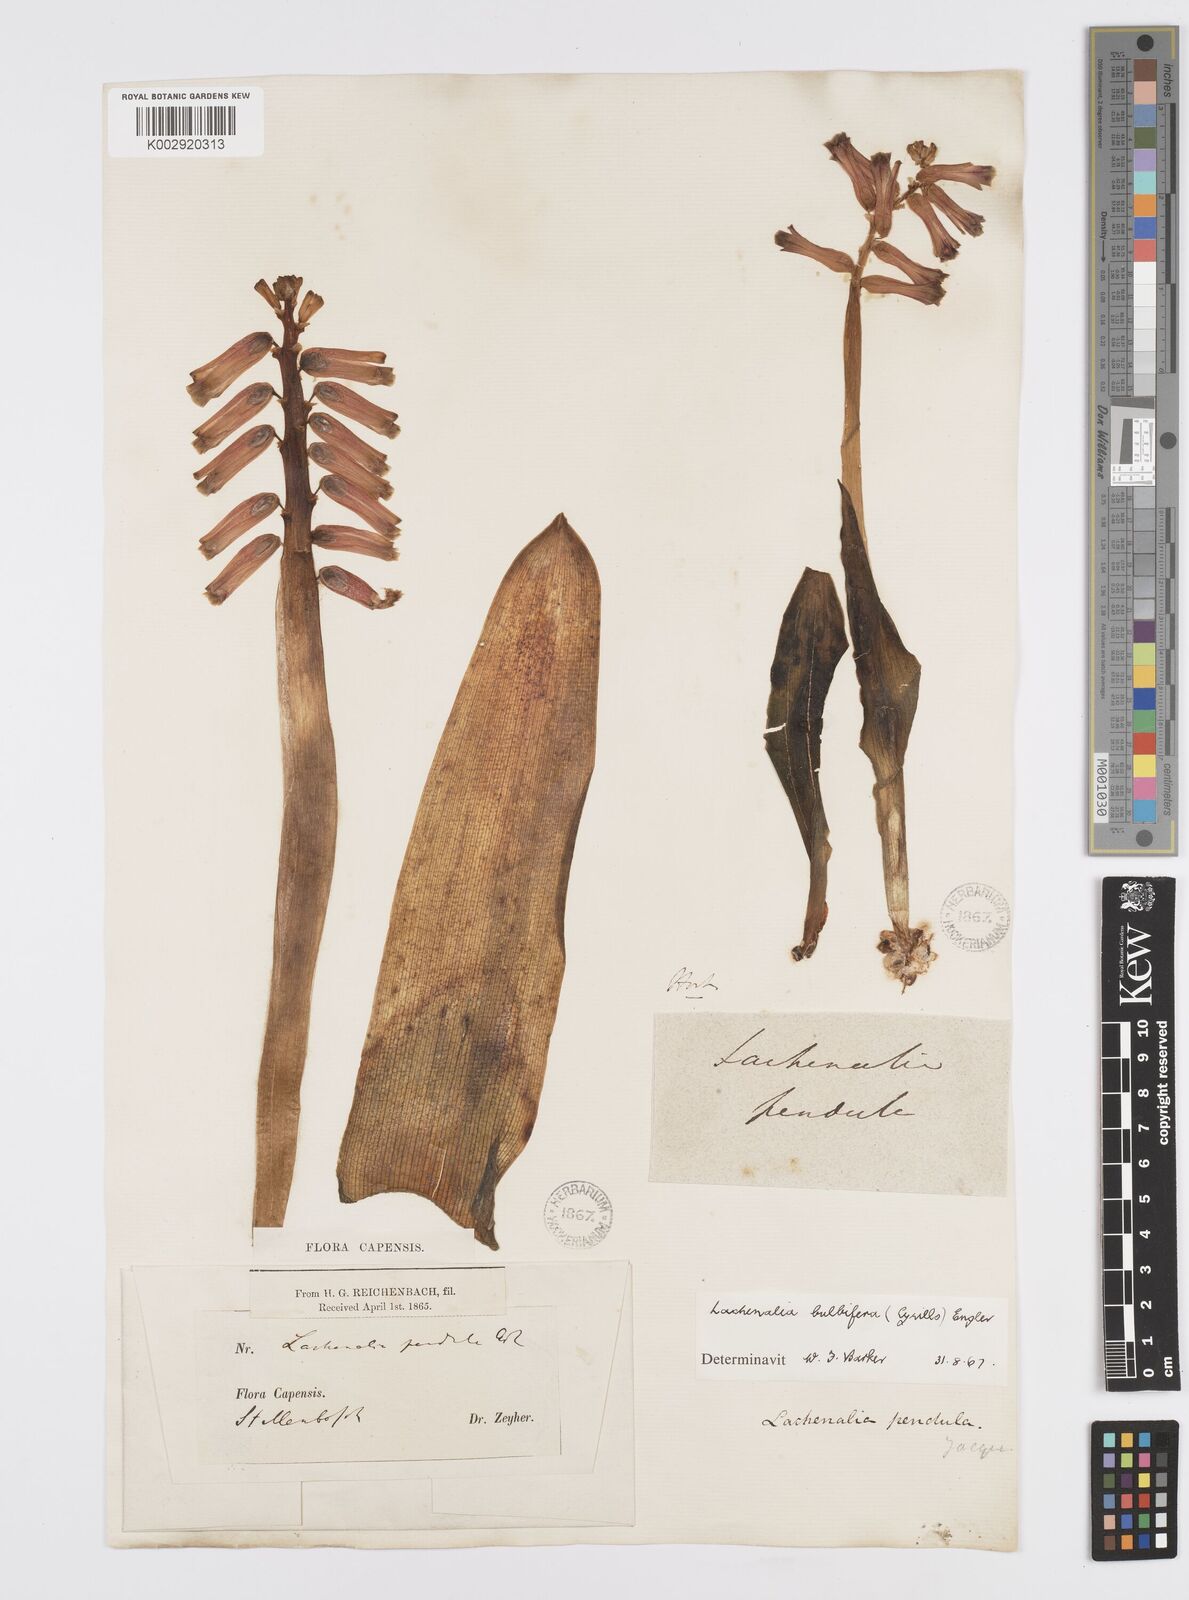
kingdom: Plantae
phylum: Tracheophyta
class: Liliopsida
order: Asparagales
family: Asparagaceae
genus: Lachenalia
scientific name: Lachenalia bulbifera
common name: Red lachenalia
